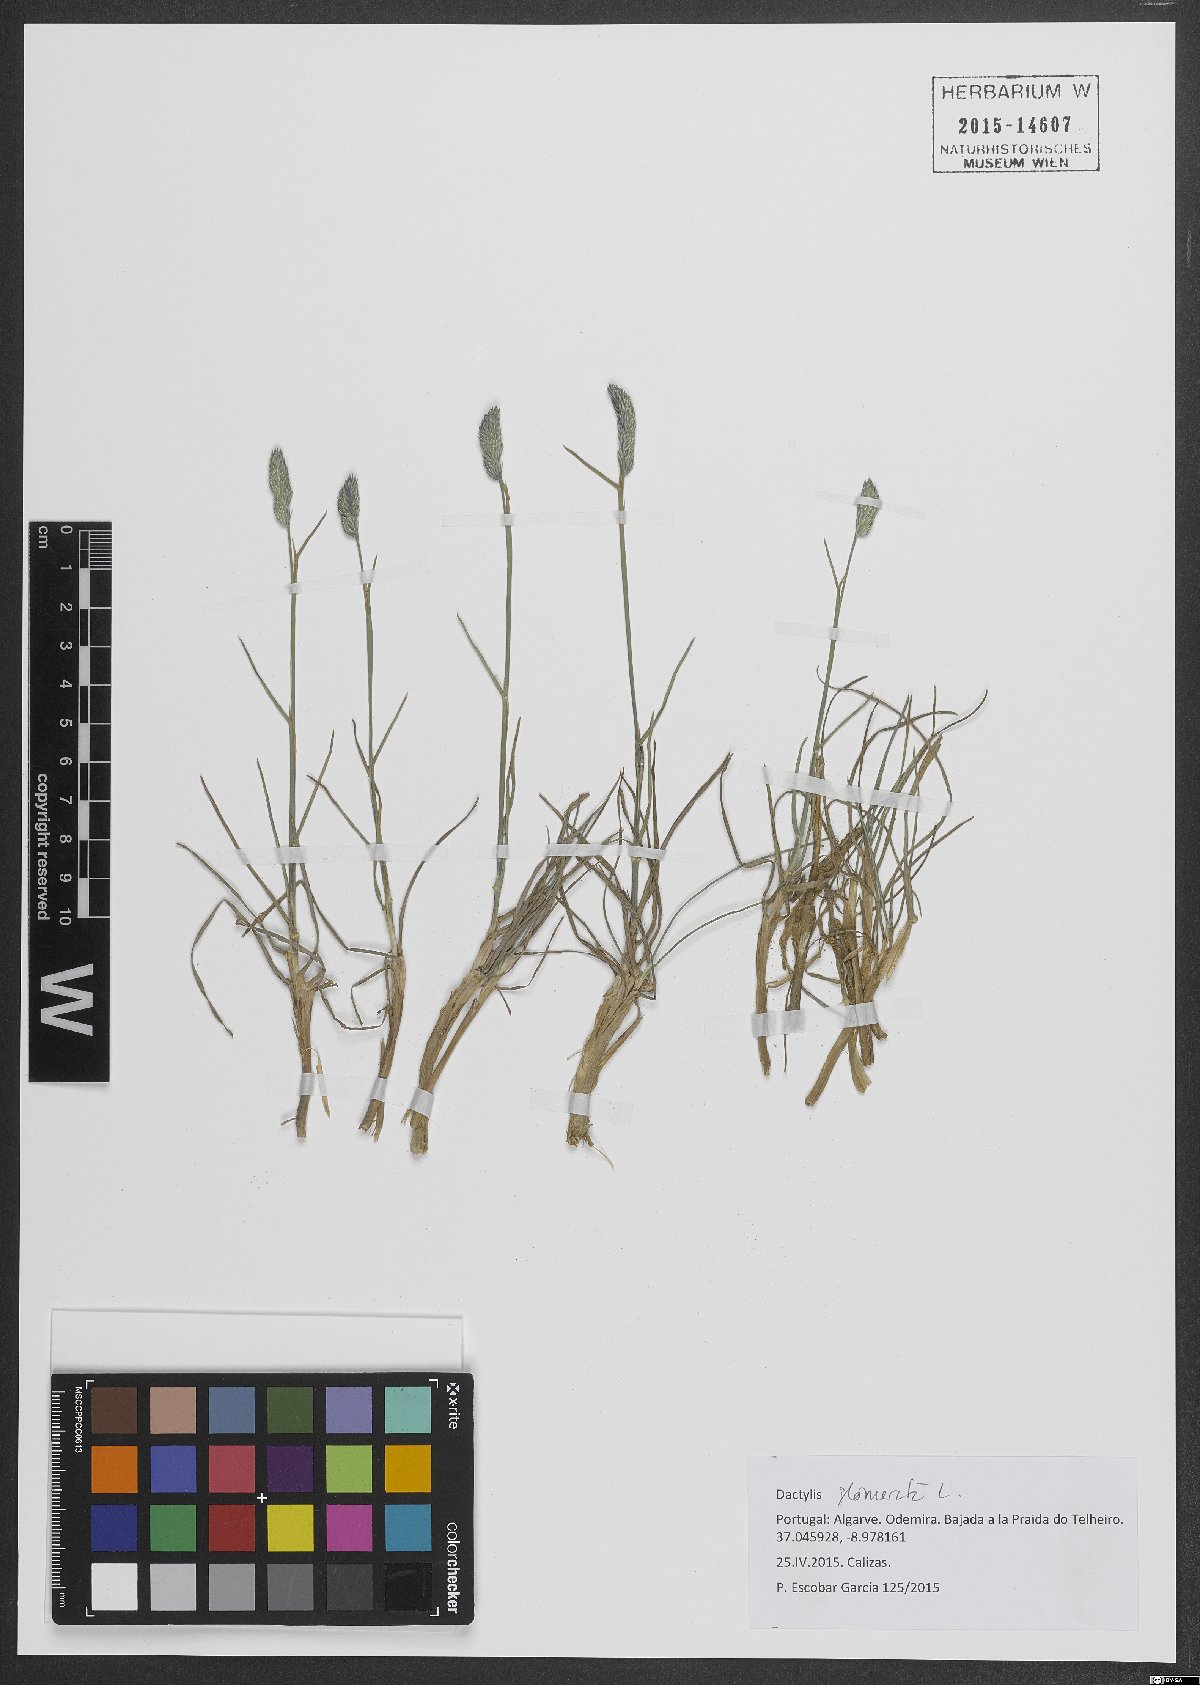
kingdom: Plantae
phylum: Tracheophyta
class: Liliopsida
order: Poales
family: Poaceae
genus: Dactylis
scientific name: Dactylis glomerata
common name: Orchardgrass
